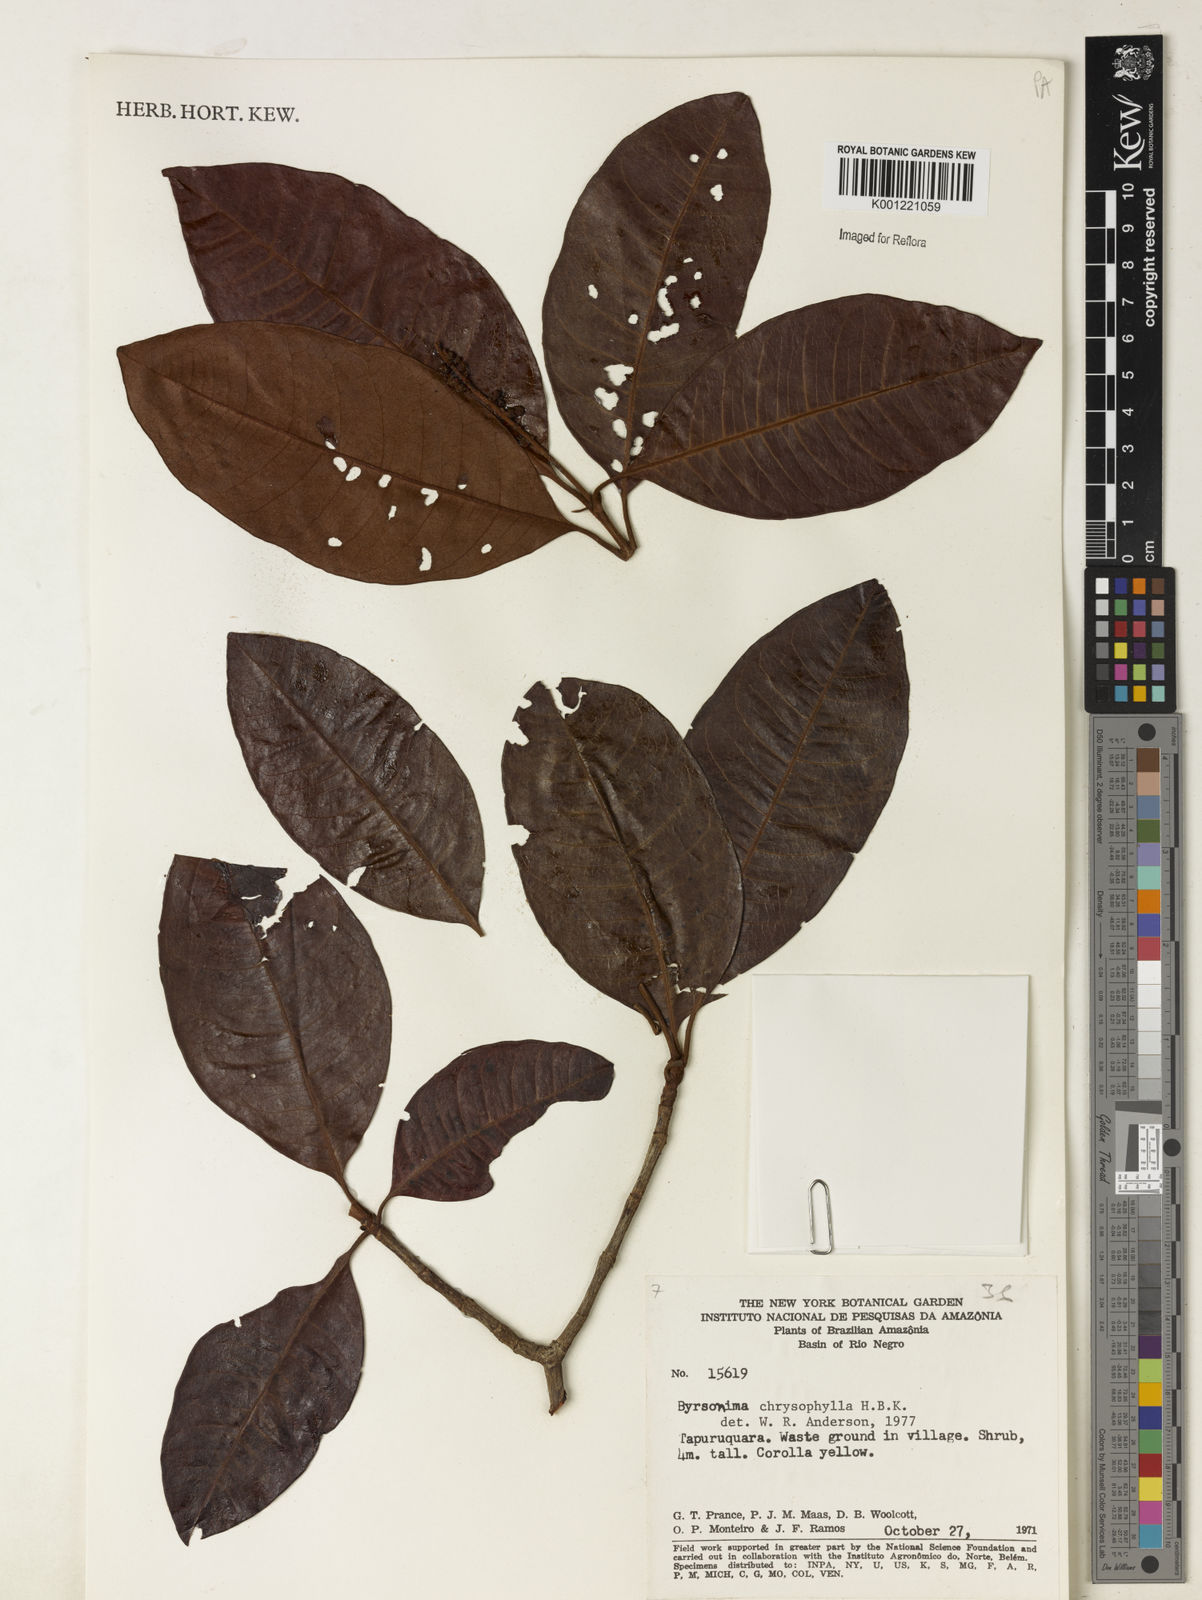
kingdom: Plantae
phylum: Tracheophyta
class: Magnoliopsida
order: Malpighiales
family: Malpighiaceae
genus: Byrsonima
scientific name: Byrsonima chrysophylla
